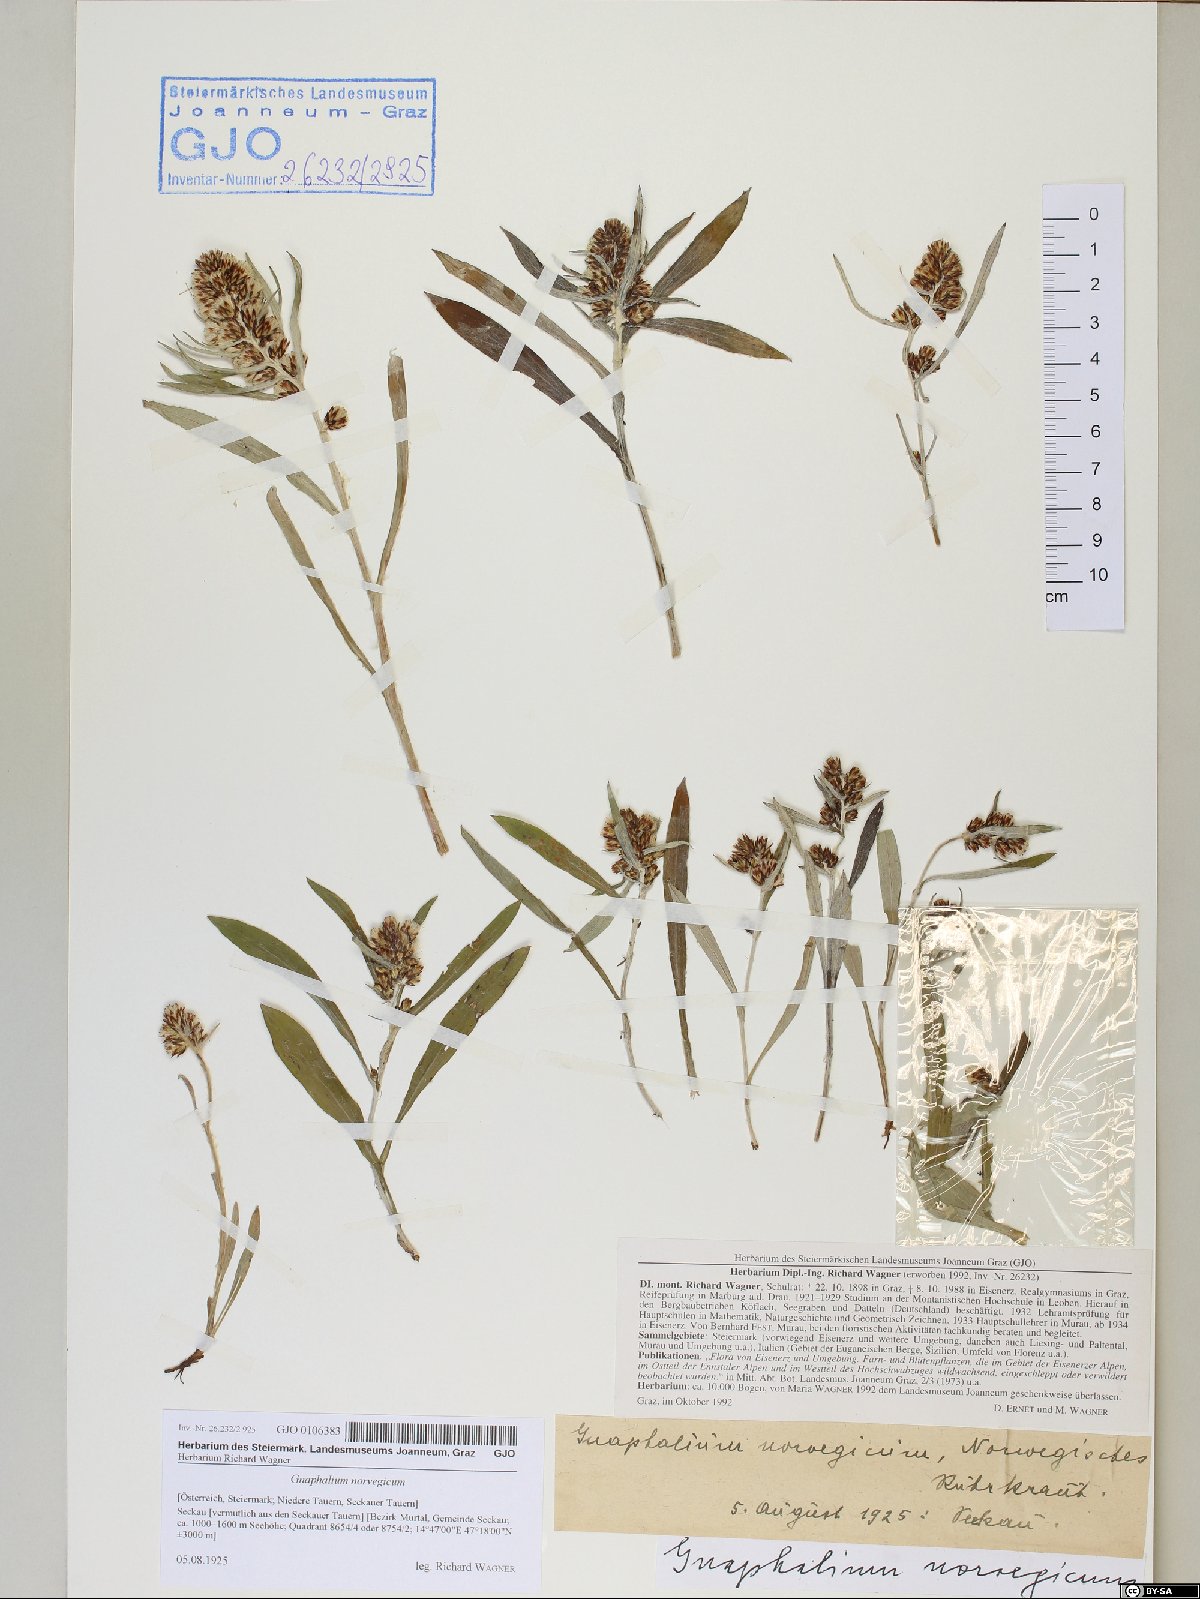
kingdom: Plantae
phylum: Tracheophyta
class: Magnoliopsida
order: Asterales
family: Asteraceae
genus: Omalotheca
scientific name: Omalotheca norvegica
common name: Norwegian arctic-cudweed
